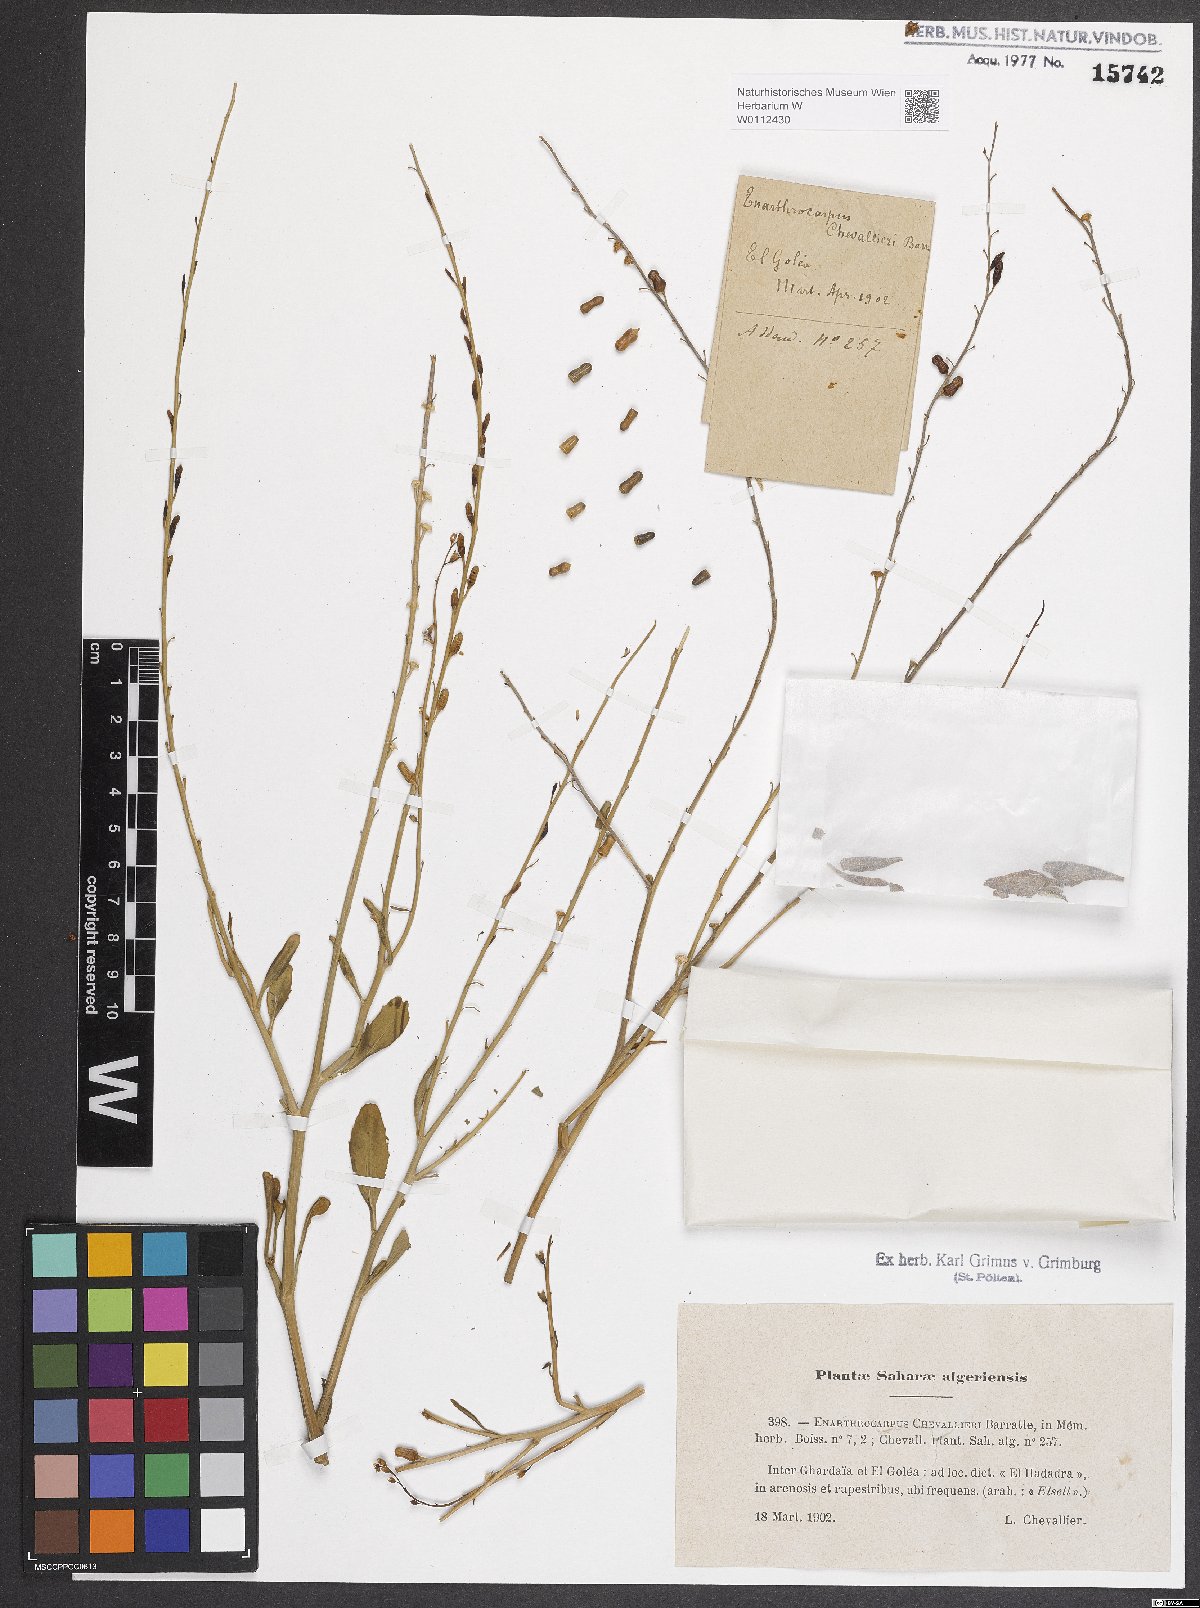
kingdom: Plantae
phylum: Tracheophyta
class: Magnoliopsida
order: Brassicales
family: Brassicaceae
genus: Eremophyton
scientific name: Eremophyton chevallieri
